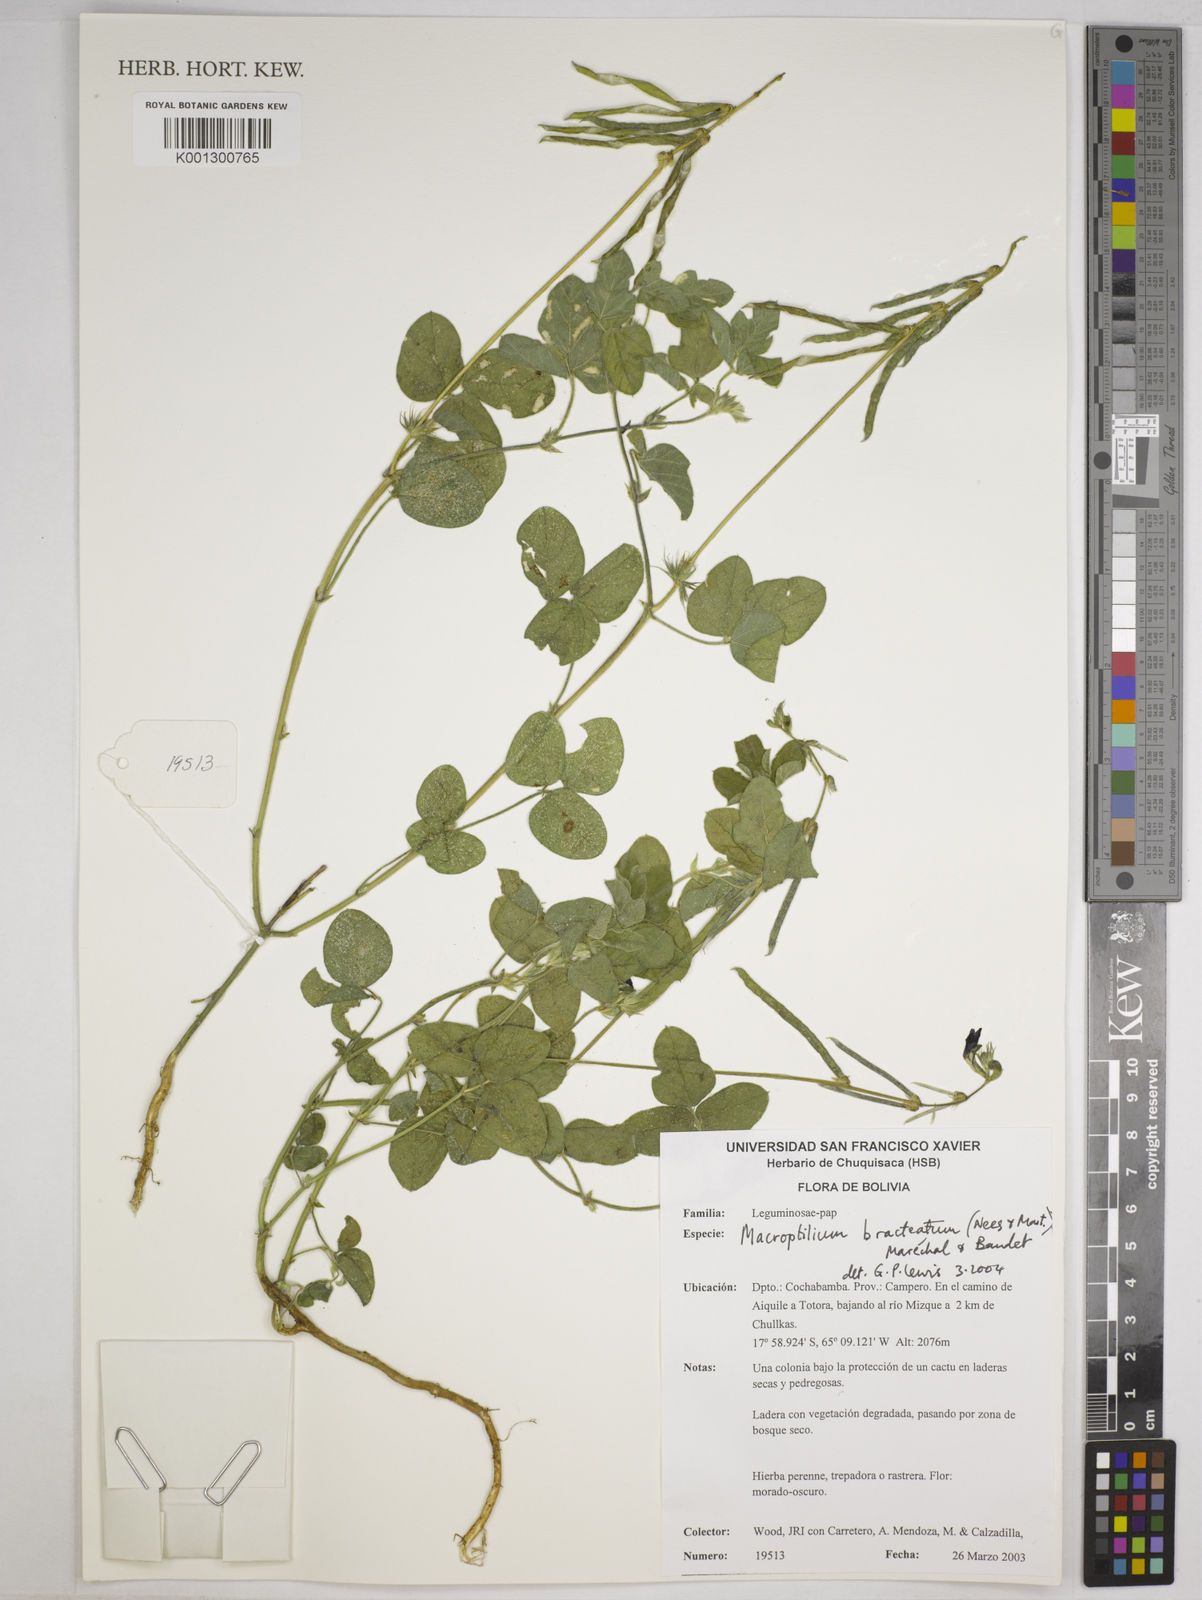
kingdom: Plantae
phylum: Tracheophyta
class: Magnoliopsida
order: Fabales
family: Fabaceae
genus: Macroptilium
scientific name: Macroptilium bracteatum
